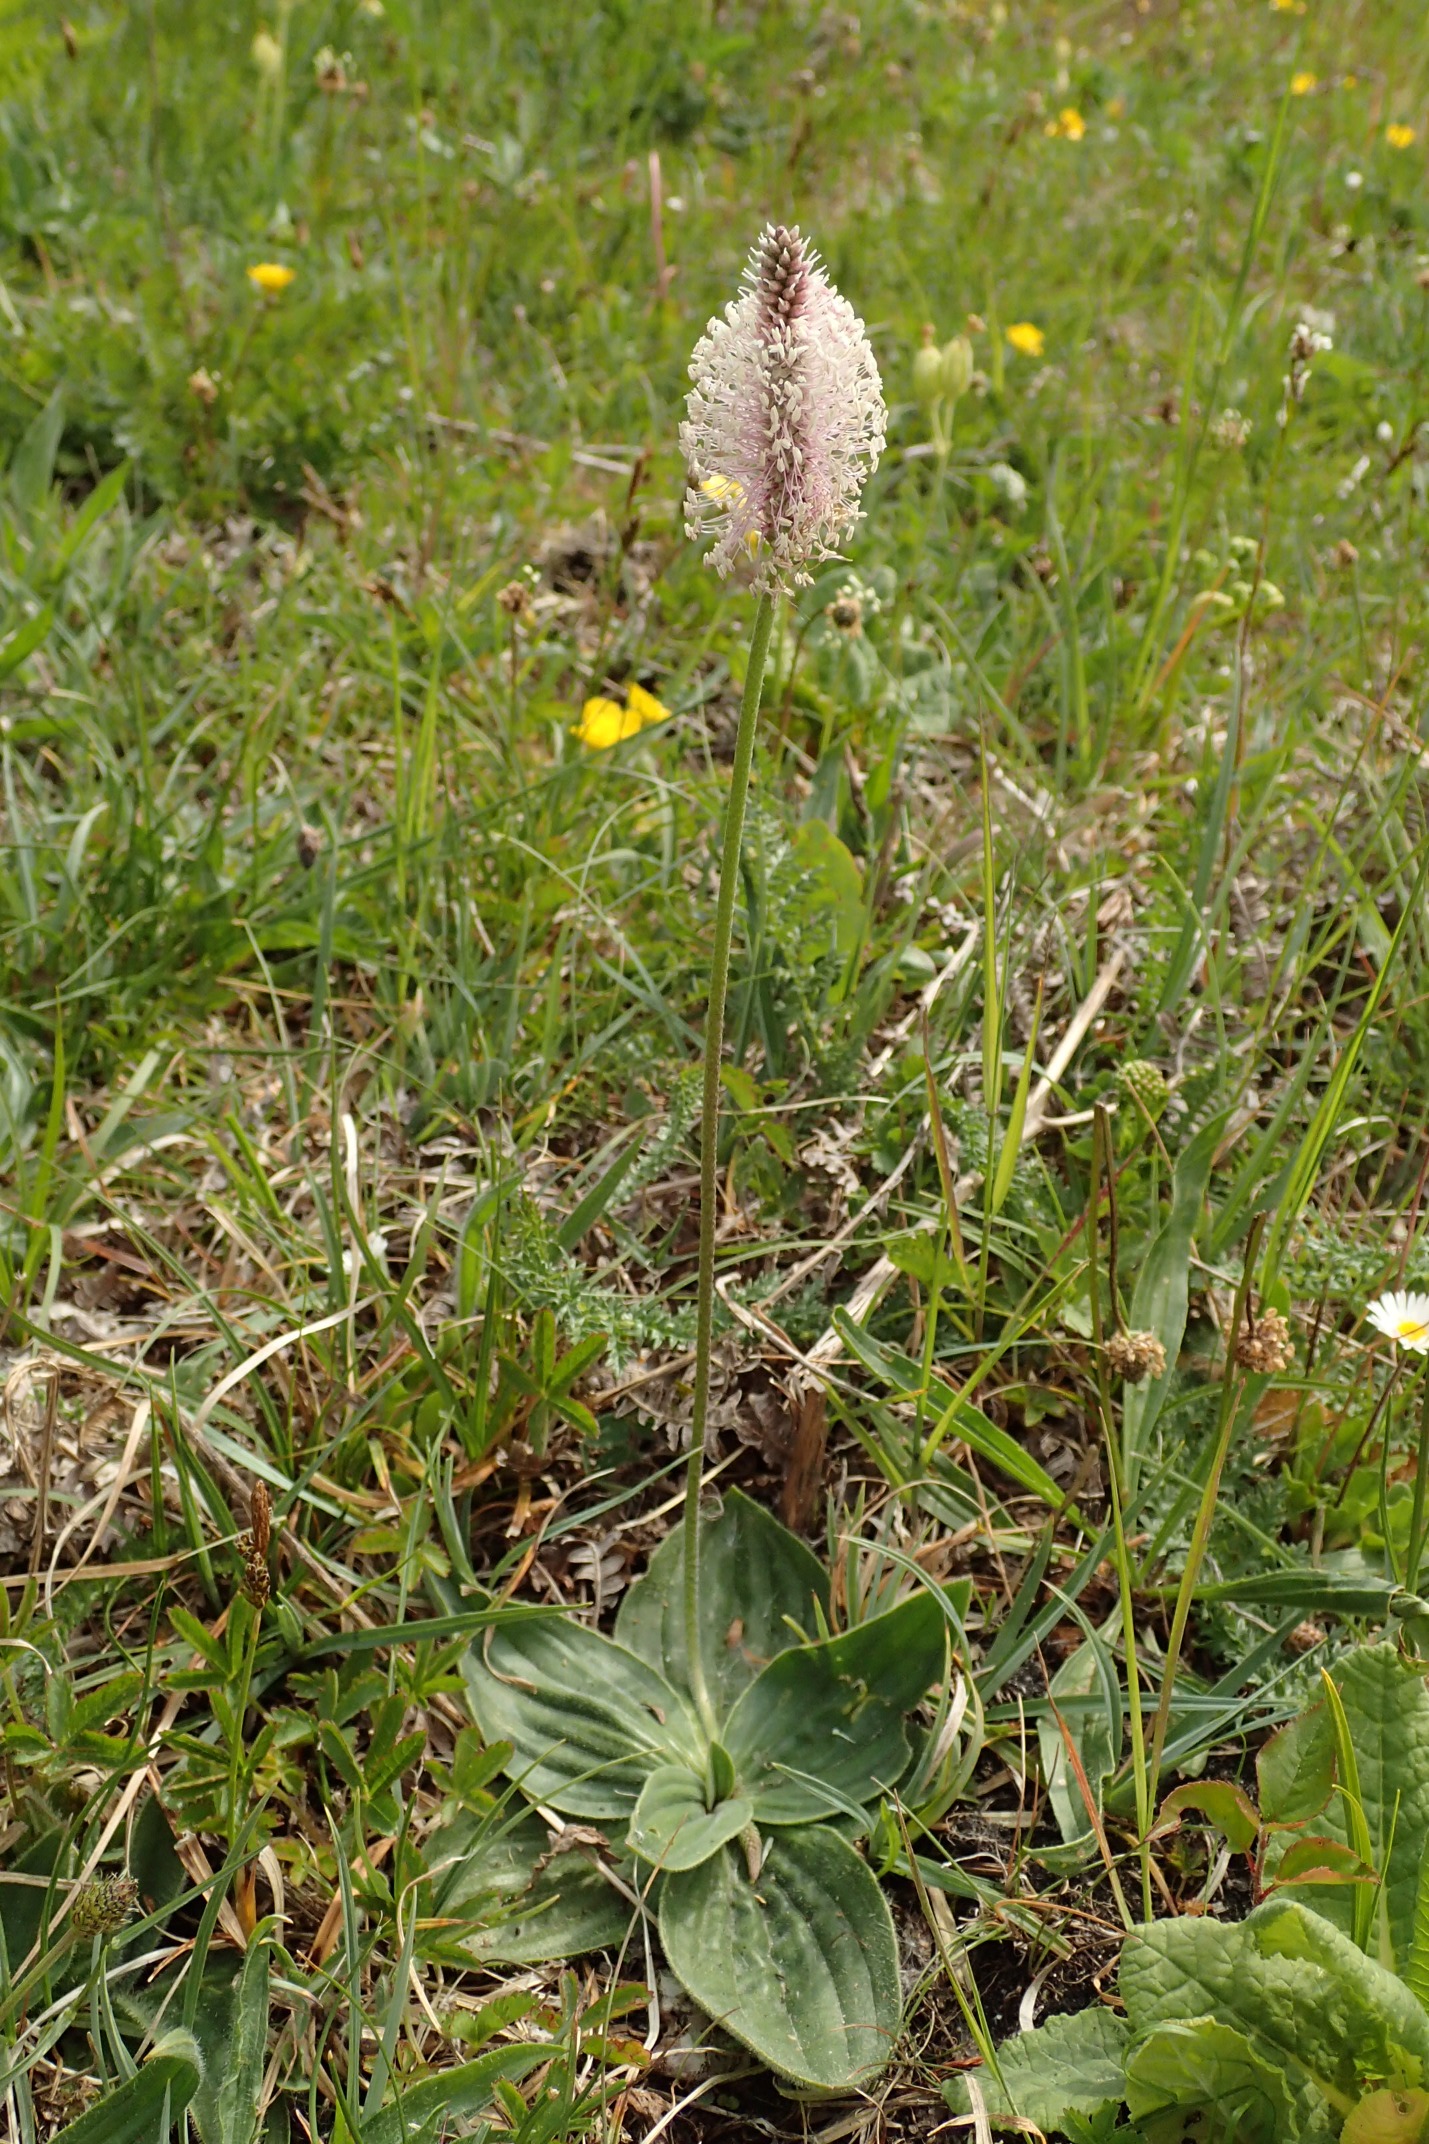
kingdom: Plantae
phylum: Tracheophyta
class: Magnoliopsida
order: Lamiales
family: Plantaginaceae
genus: Plantago
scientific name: Plantago media
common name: Dunet vejbred
